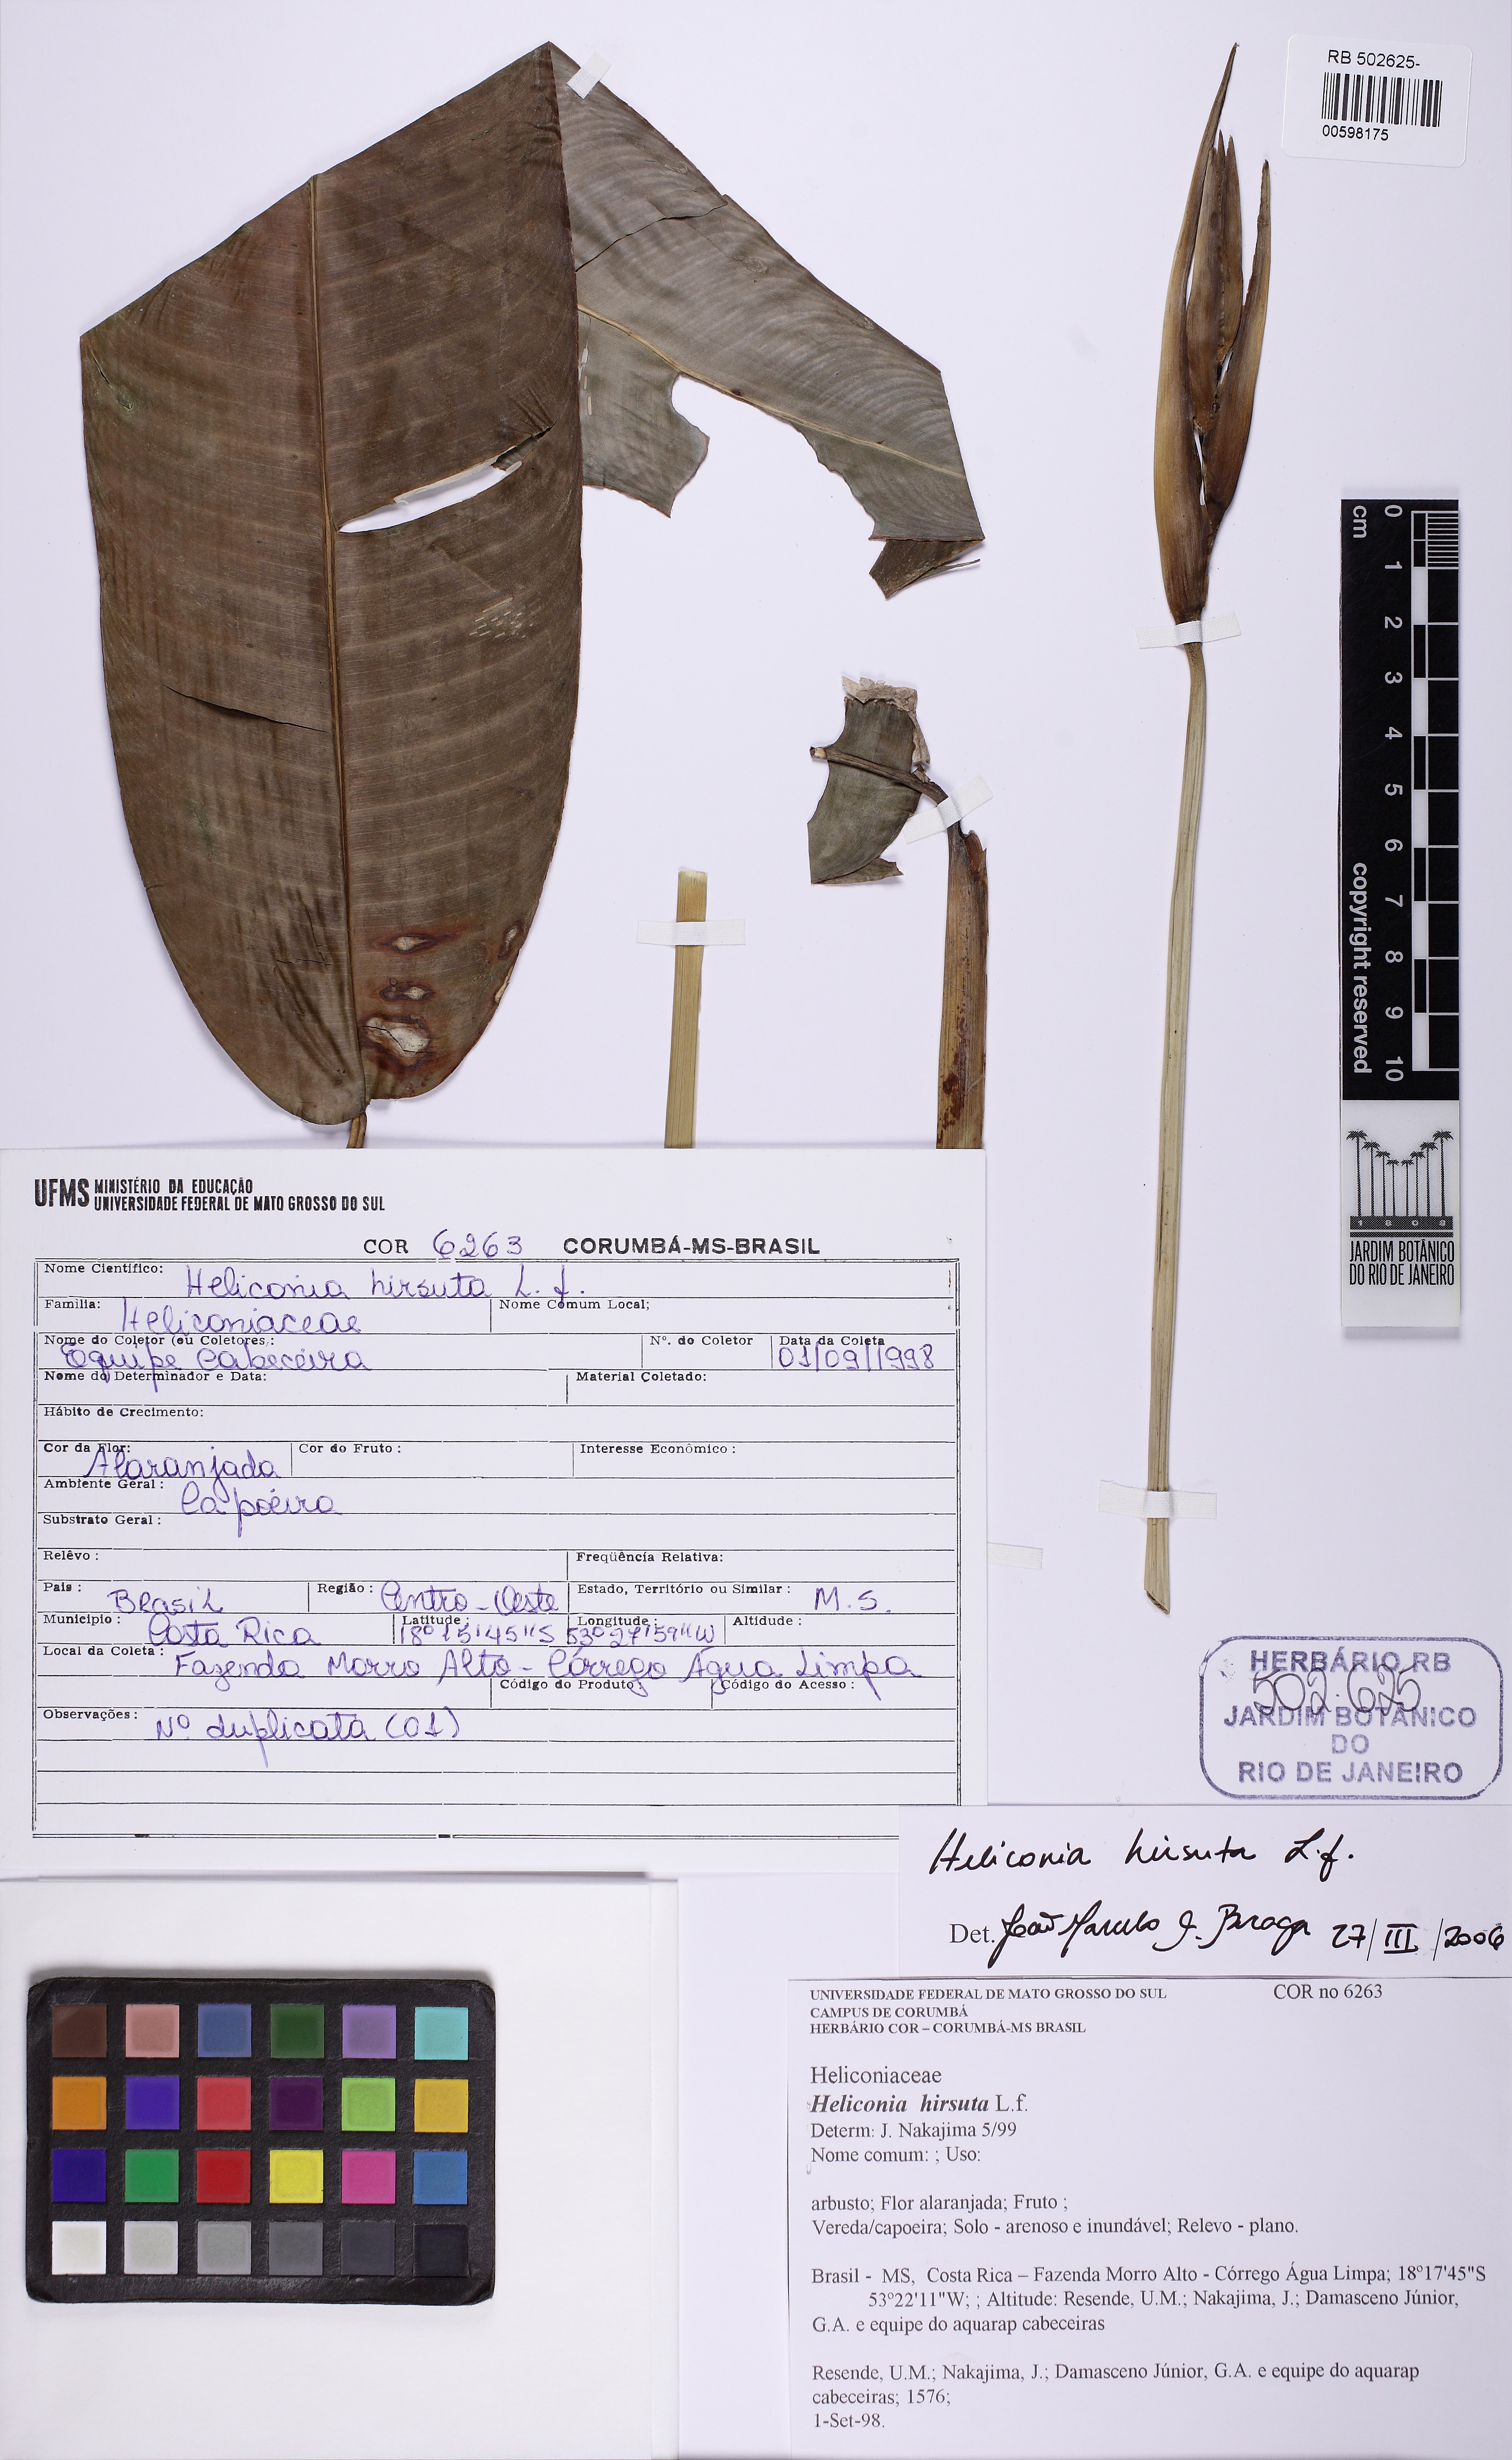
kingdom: Plantae
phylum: Tracheophyta
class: Liliopsida
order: Zingiberales
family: Heliconiaceae
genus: Heliconia
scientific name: Heliconia hirsuta
